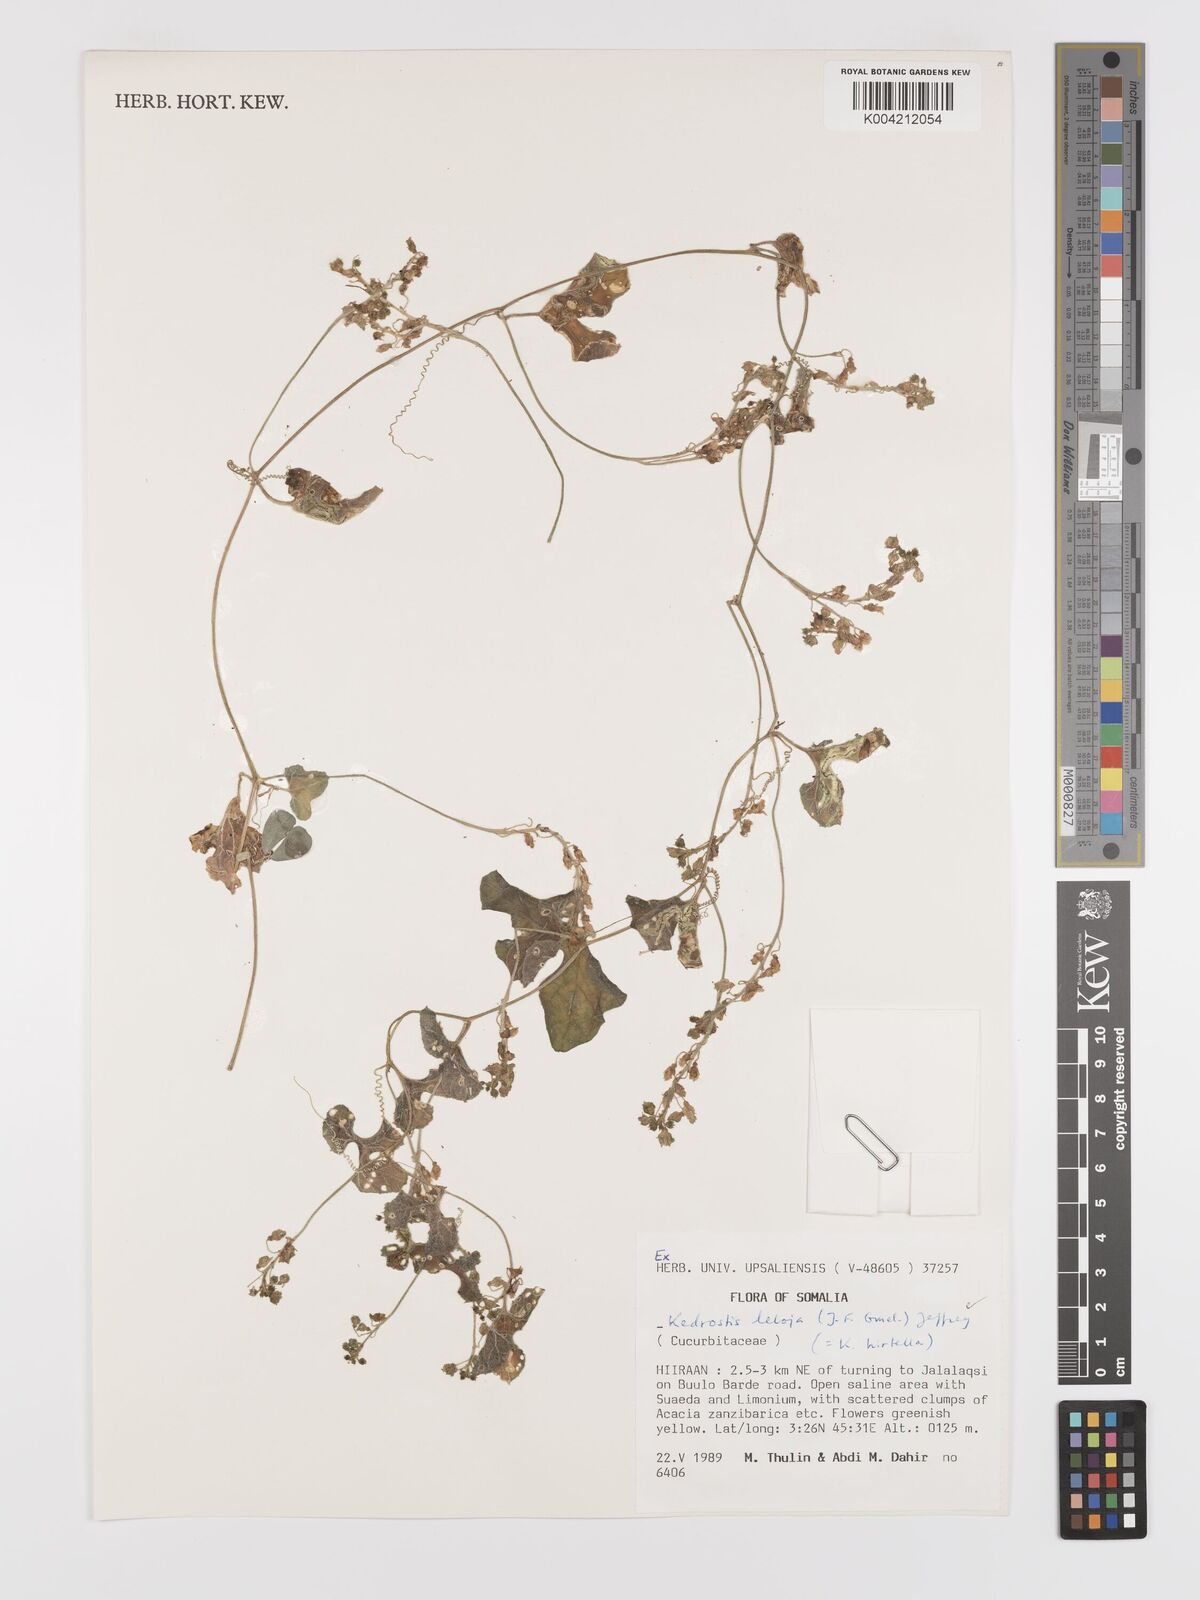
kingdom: Plantae
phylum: Tracheophyta
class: Magnoliopsida
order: Cucurbitales
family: Cucurbitaceae
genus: Kedrostis
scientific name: Kedrostis leloja
